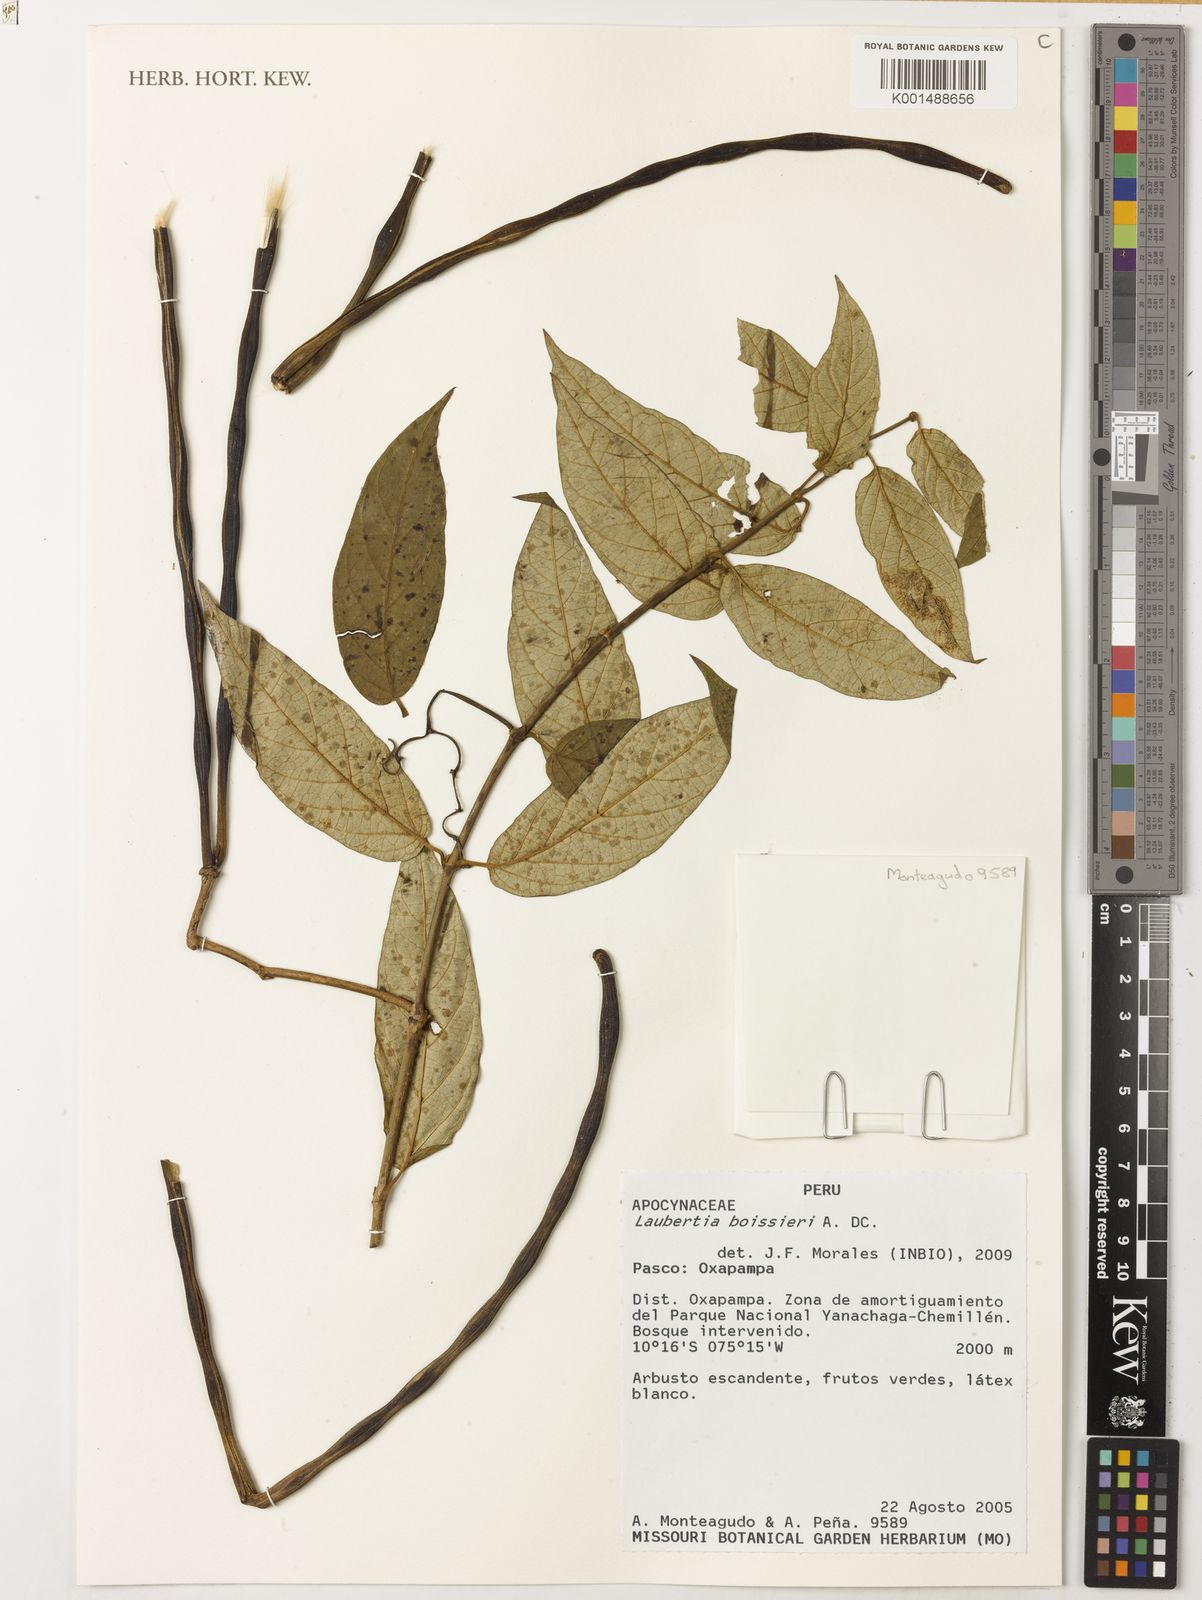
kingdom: Plantae
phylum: Tracheophyta
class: Magnoliopsida
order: Gentianales
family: Apocynaceae
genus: Laubertia
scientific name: Laubertia boissieri
